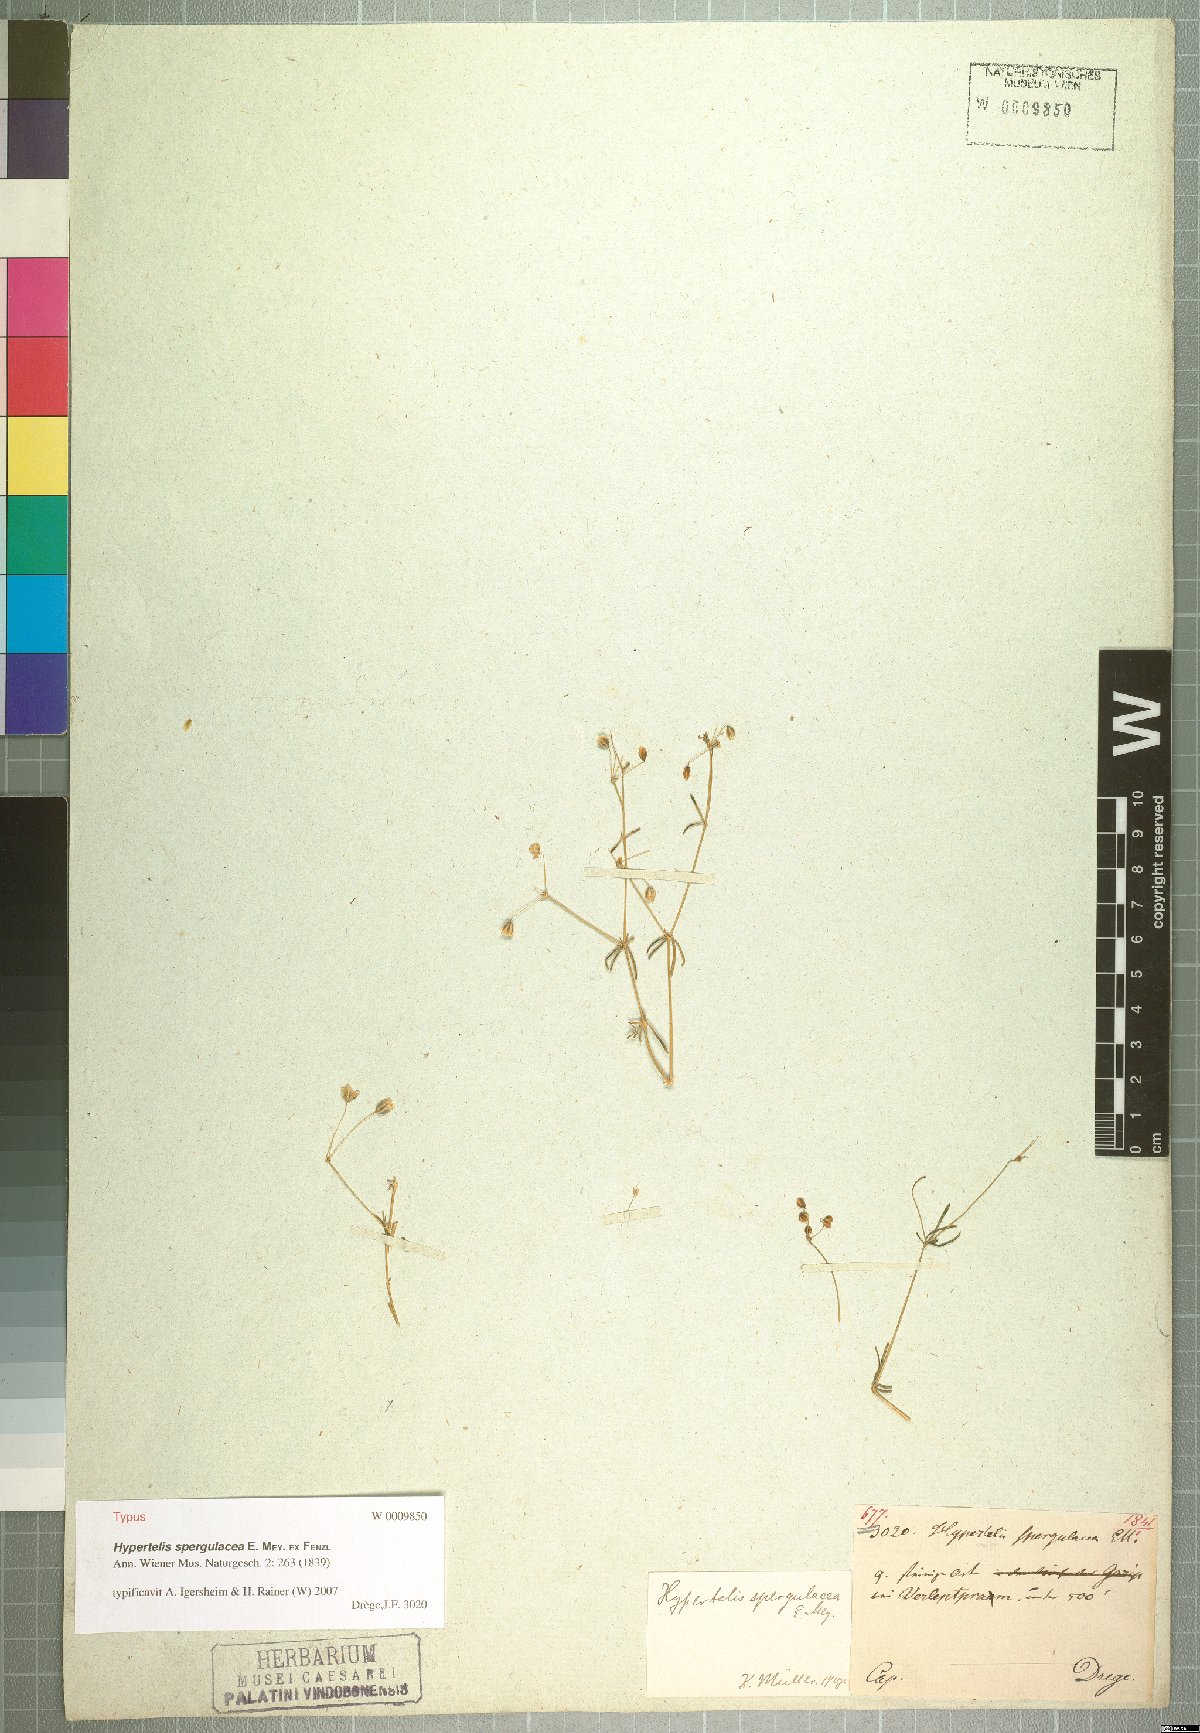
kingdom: Plantae
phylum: Tracheophyta
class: Magnoliopsida
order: Caryophyllales
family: Molluginaceae
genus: Hypertelis
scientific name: Hypertelis spergulacea
